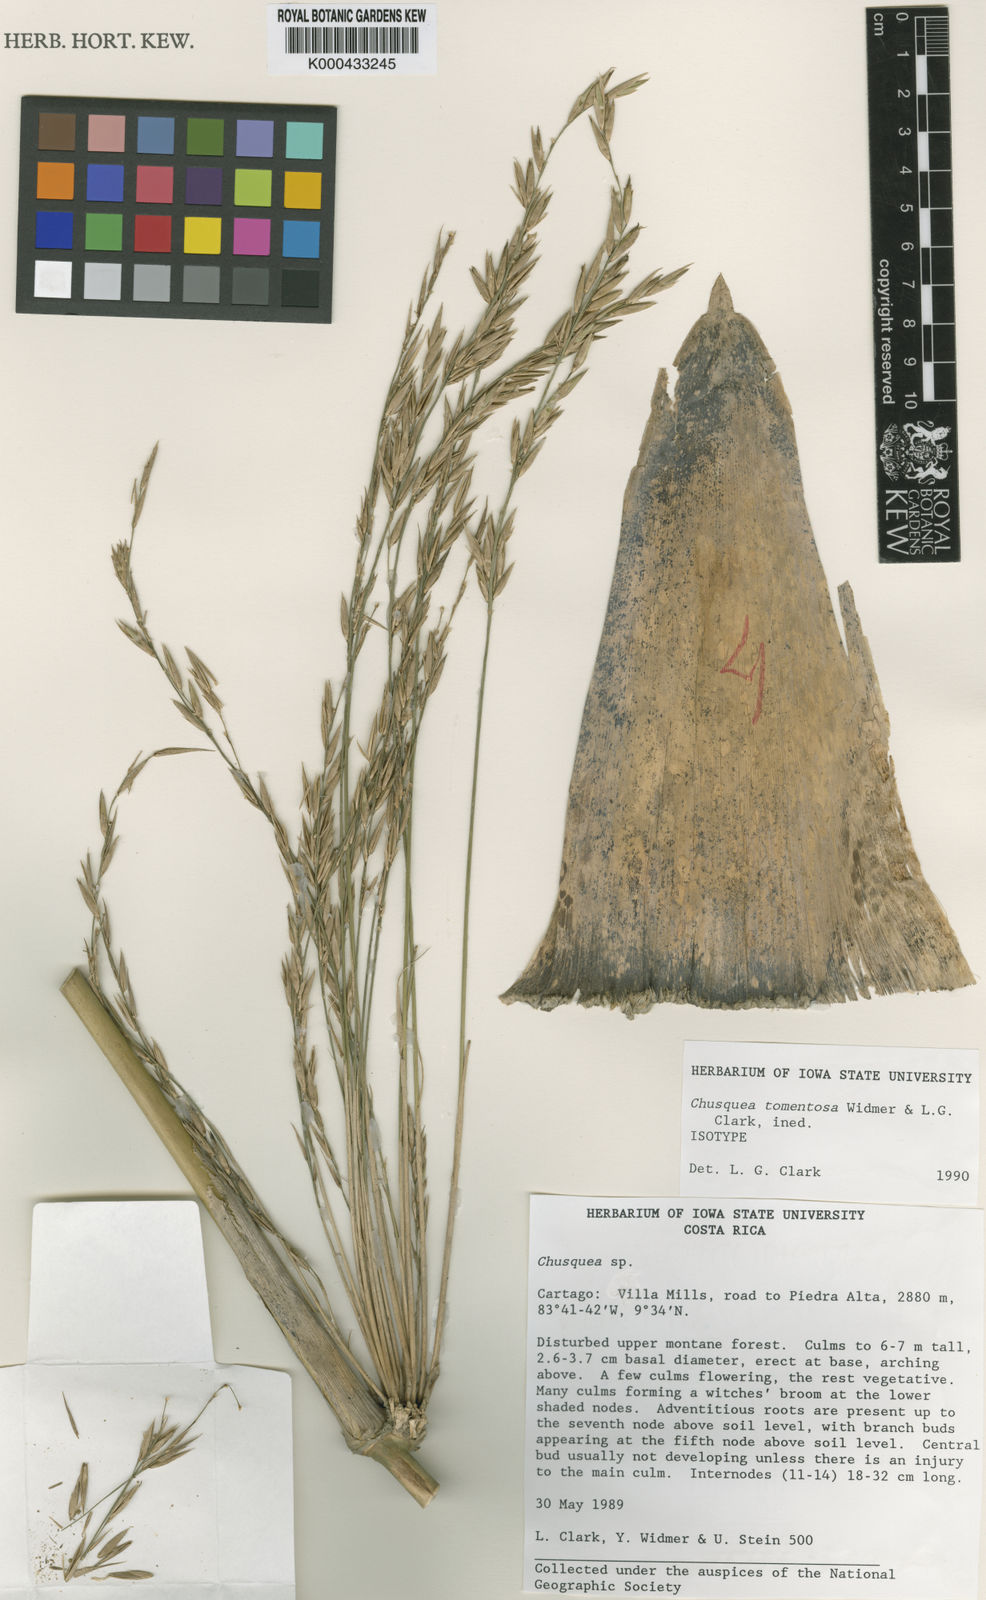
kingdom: Plantae
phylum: Tracheophyta
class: Liliopsida
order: Poales
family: Poaceae
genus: Chusquea
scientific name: Chusquea tomentosa
